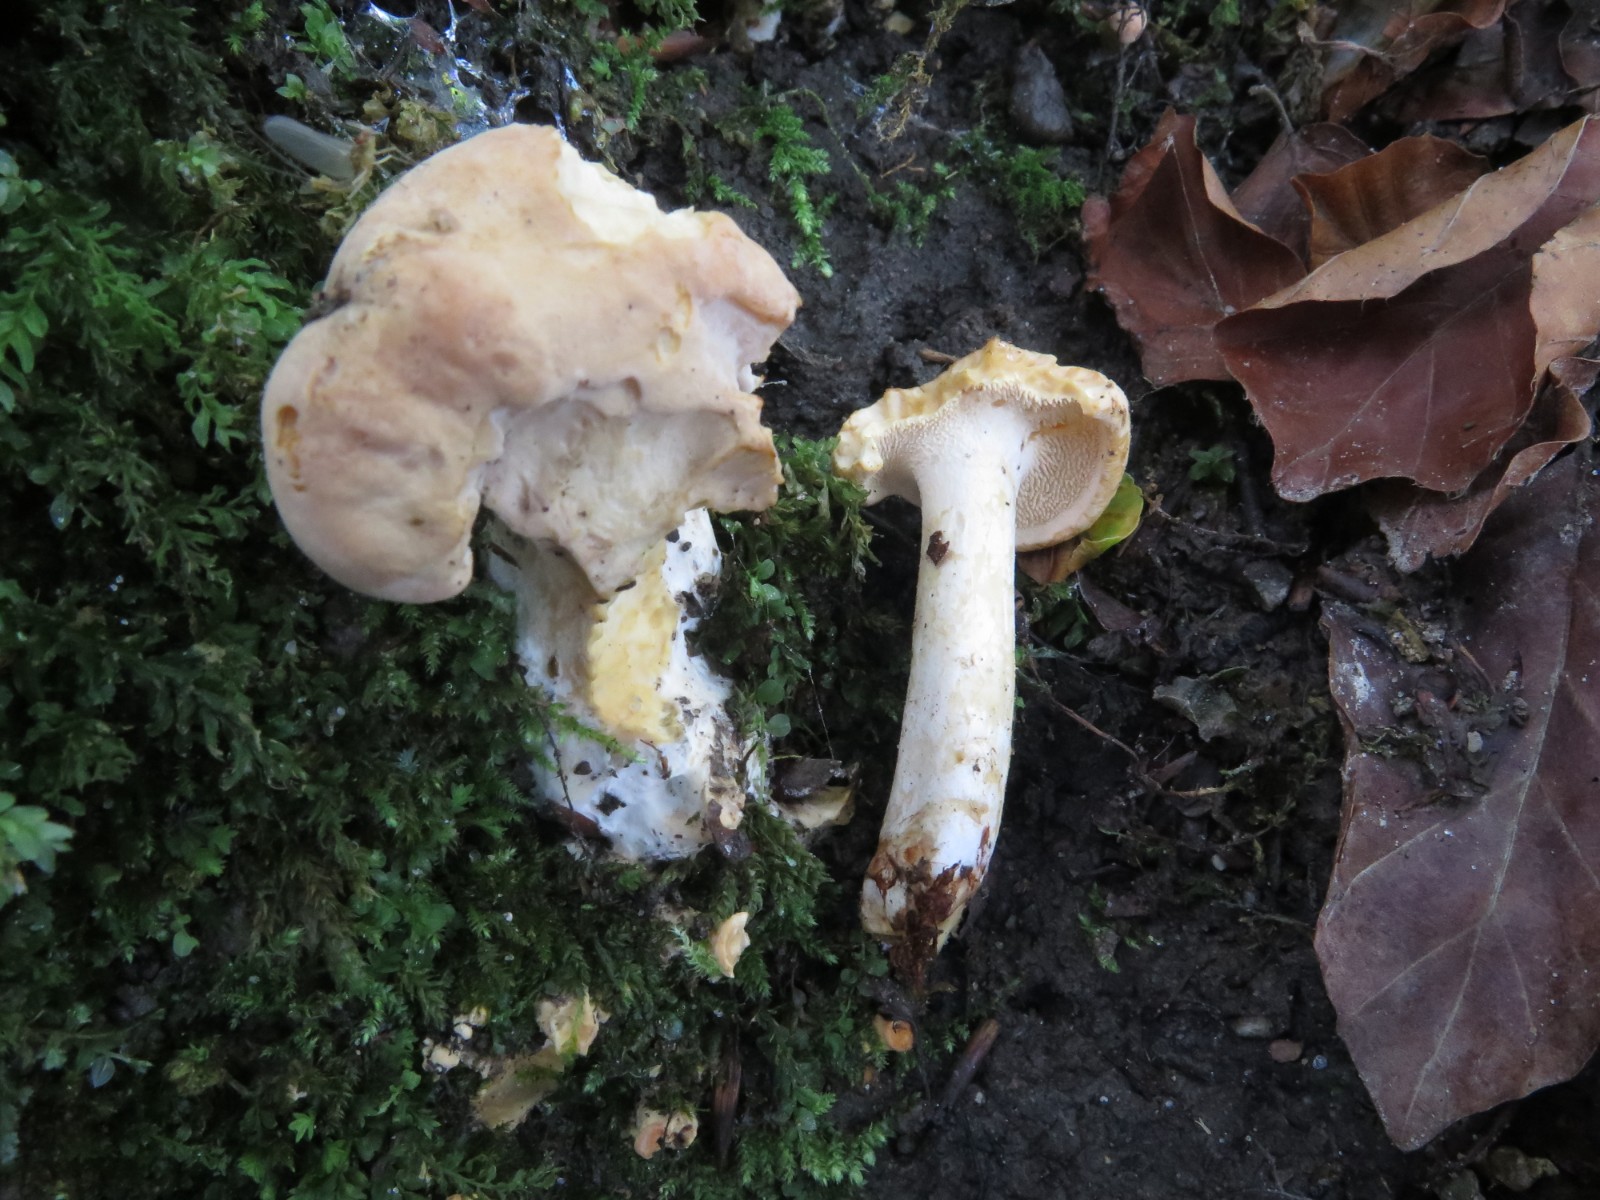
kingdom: Fungi
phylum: Basidiomycota
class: Agaricomycetes
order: Cantharellales
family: Hydnaceae
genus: Hydnum
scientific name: Hydnum repandum
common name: almindelig pigsvamp
